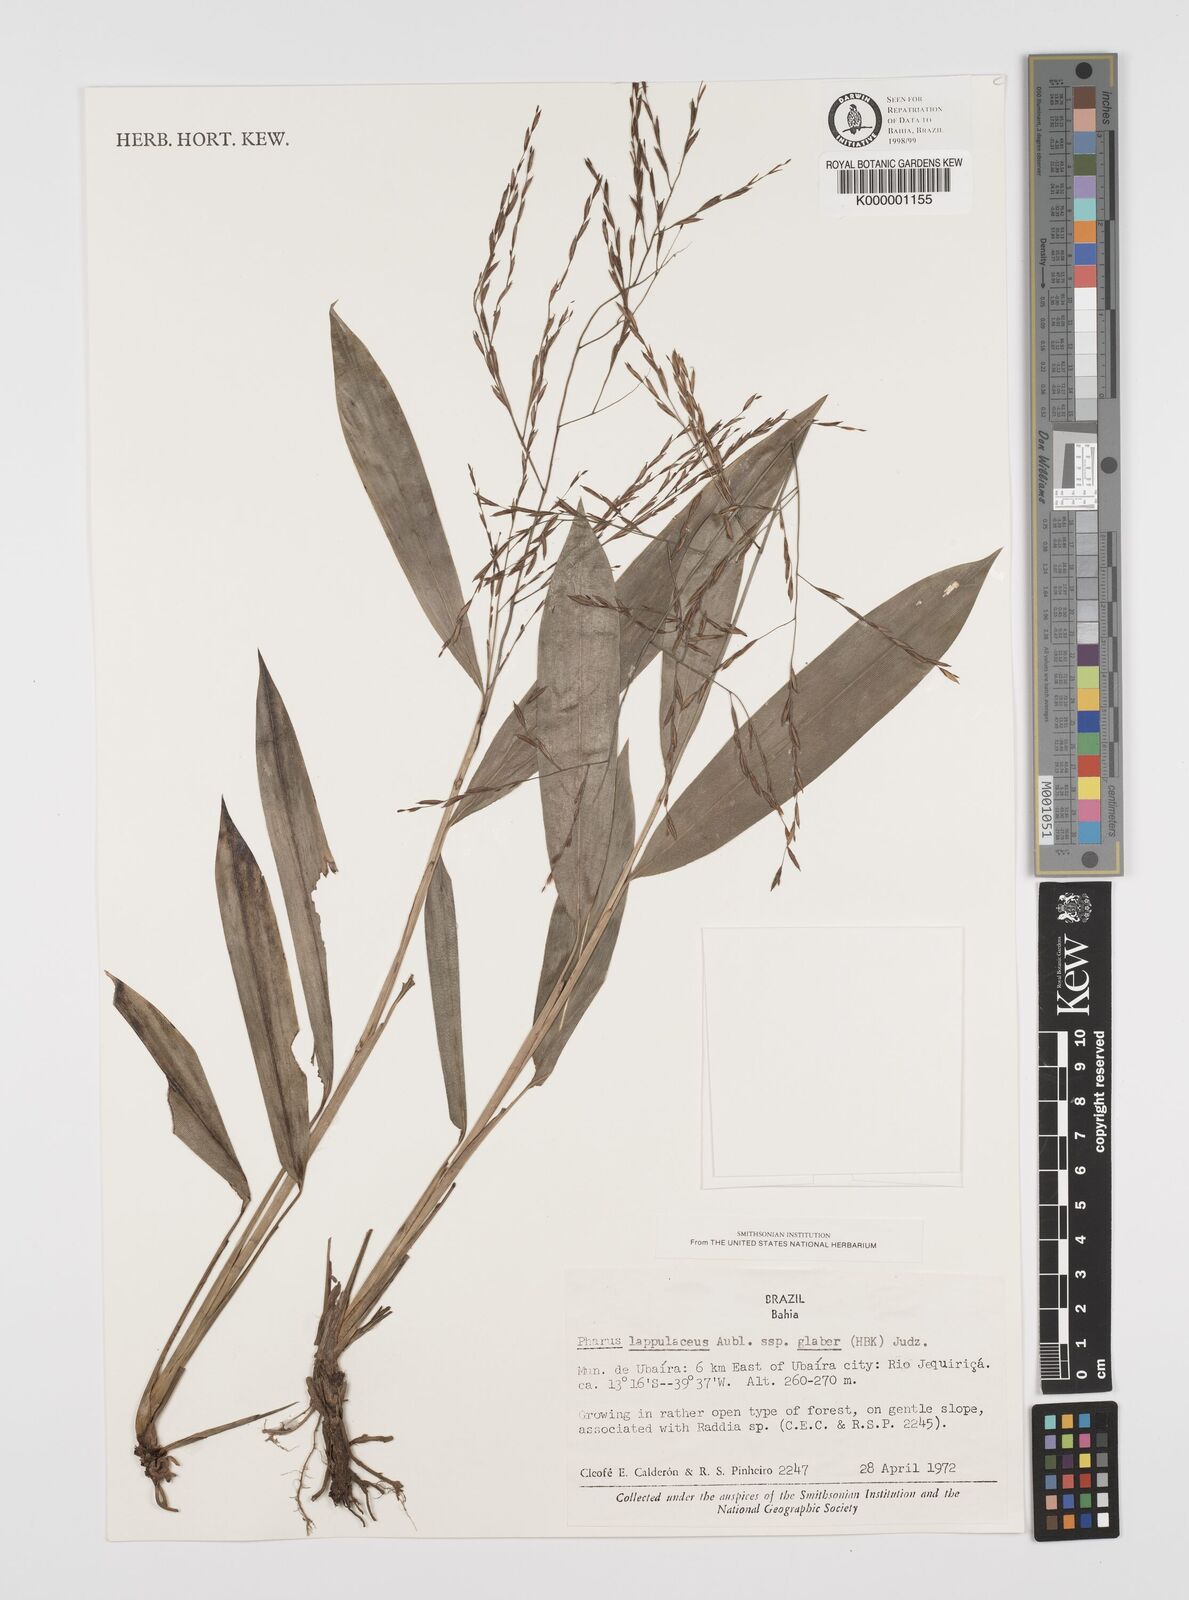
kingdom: Plantae
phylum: Tracheophyta
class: Liliopsida
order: Poales
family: Poaceae
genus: Pharus
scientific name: Pharus lappulaceus
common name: Creeping leafstalk grass
